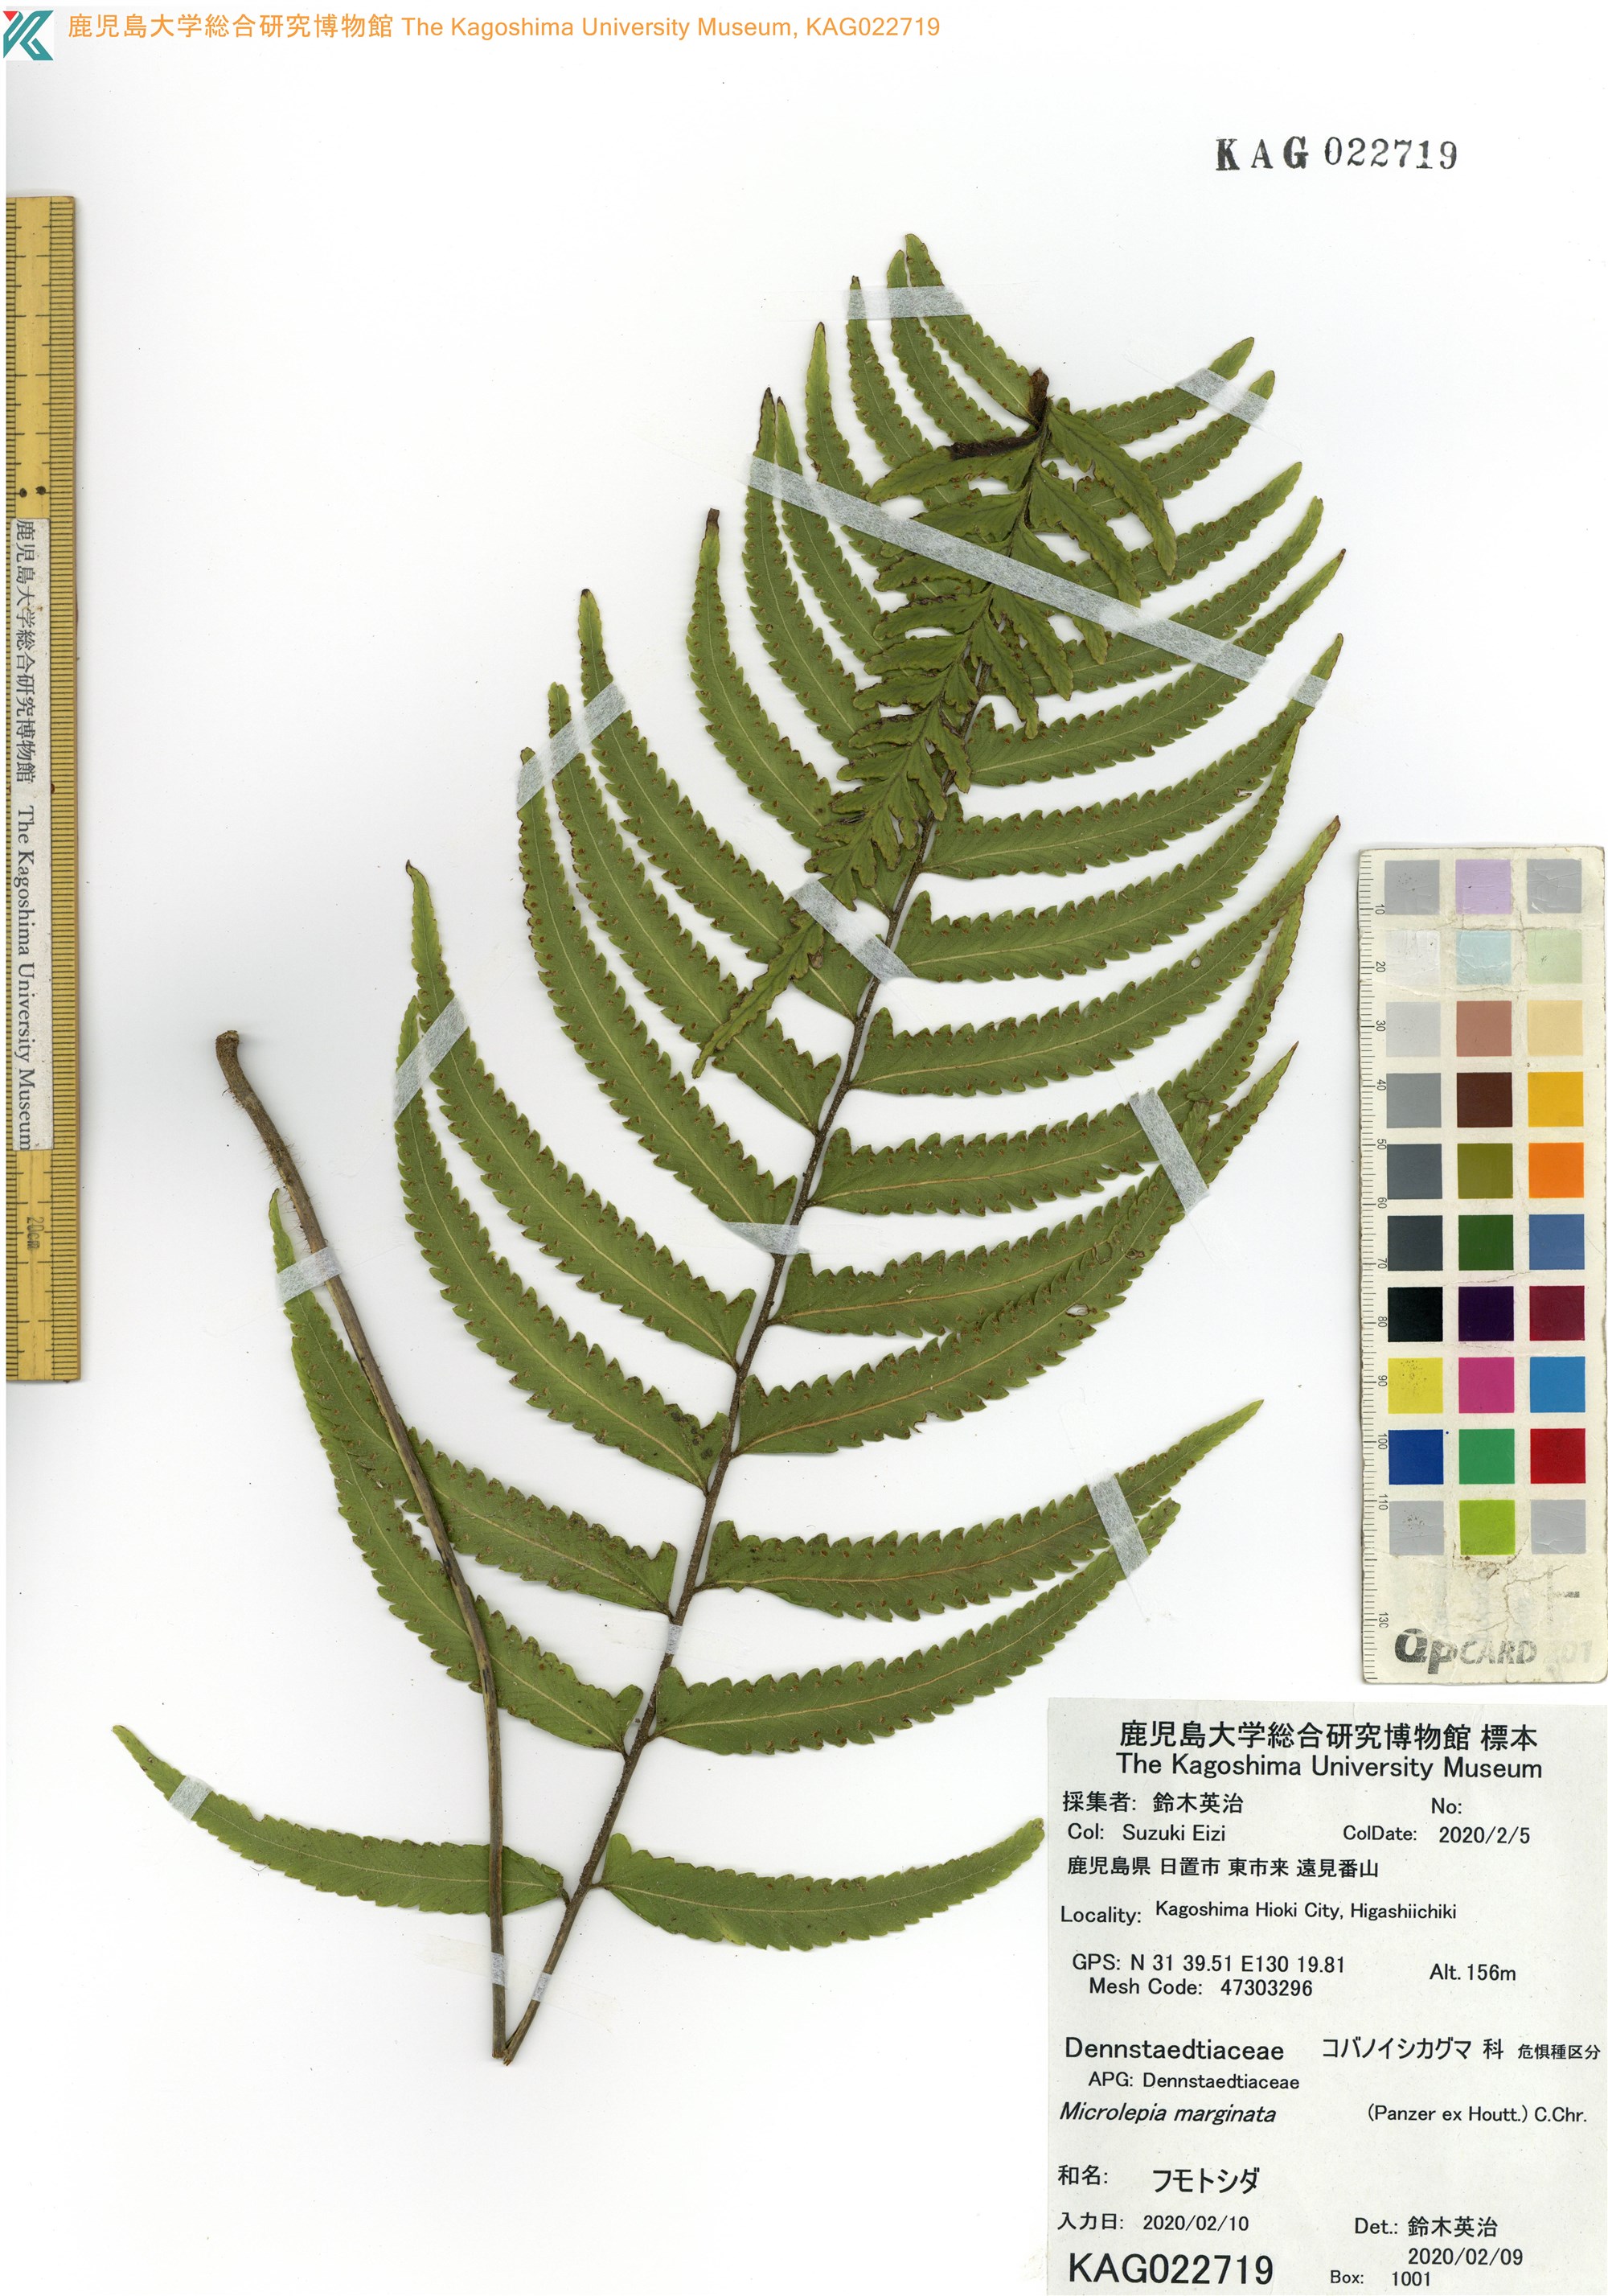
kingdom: Plantae
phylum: Tracheophyta
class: Polypodiopsida
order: Polypodiales
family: Dennstaedtiaceae
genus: Microlepia
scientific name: Microlepia marginata
